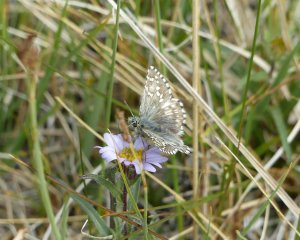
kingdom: Animalia
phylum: Arthropoda
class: Insecta
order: Lepidoptera
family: Hesperiidae
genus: Pyrgus
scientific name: Pyrgus centaureae
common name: Grizzled Skipper
